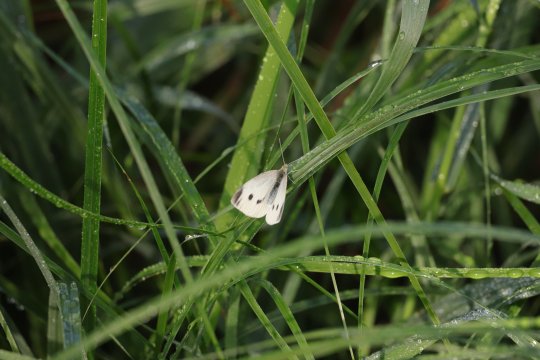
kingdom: Animalia
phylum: Arthropoda
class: Insecta
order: Lepidoptera
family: Pieridae
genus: Pieris
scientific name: Pieris rapae
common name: Cabbage White
